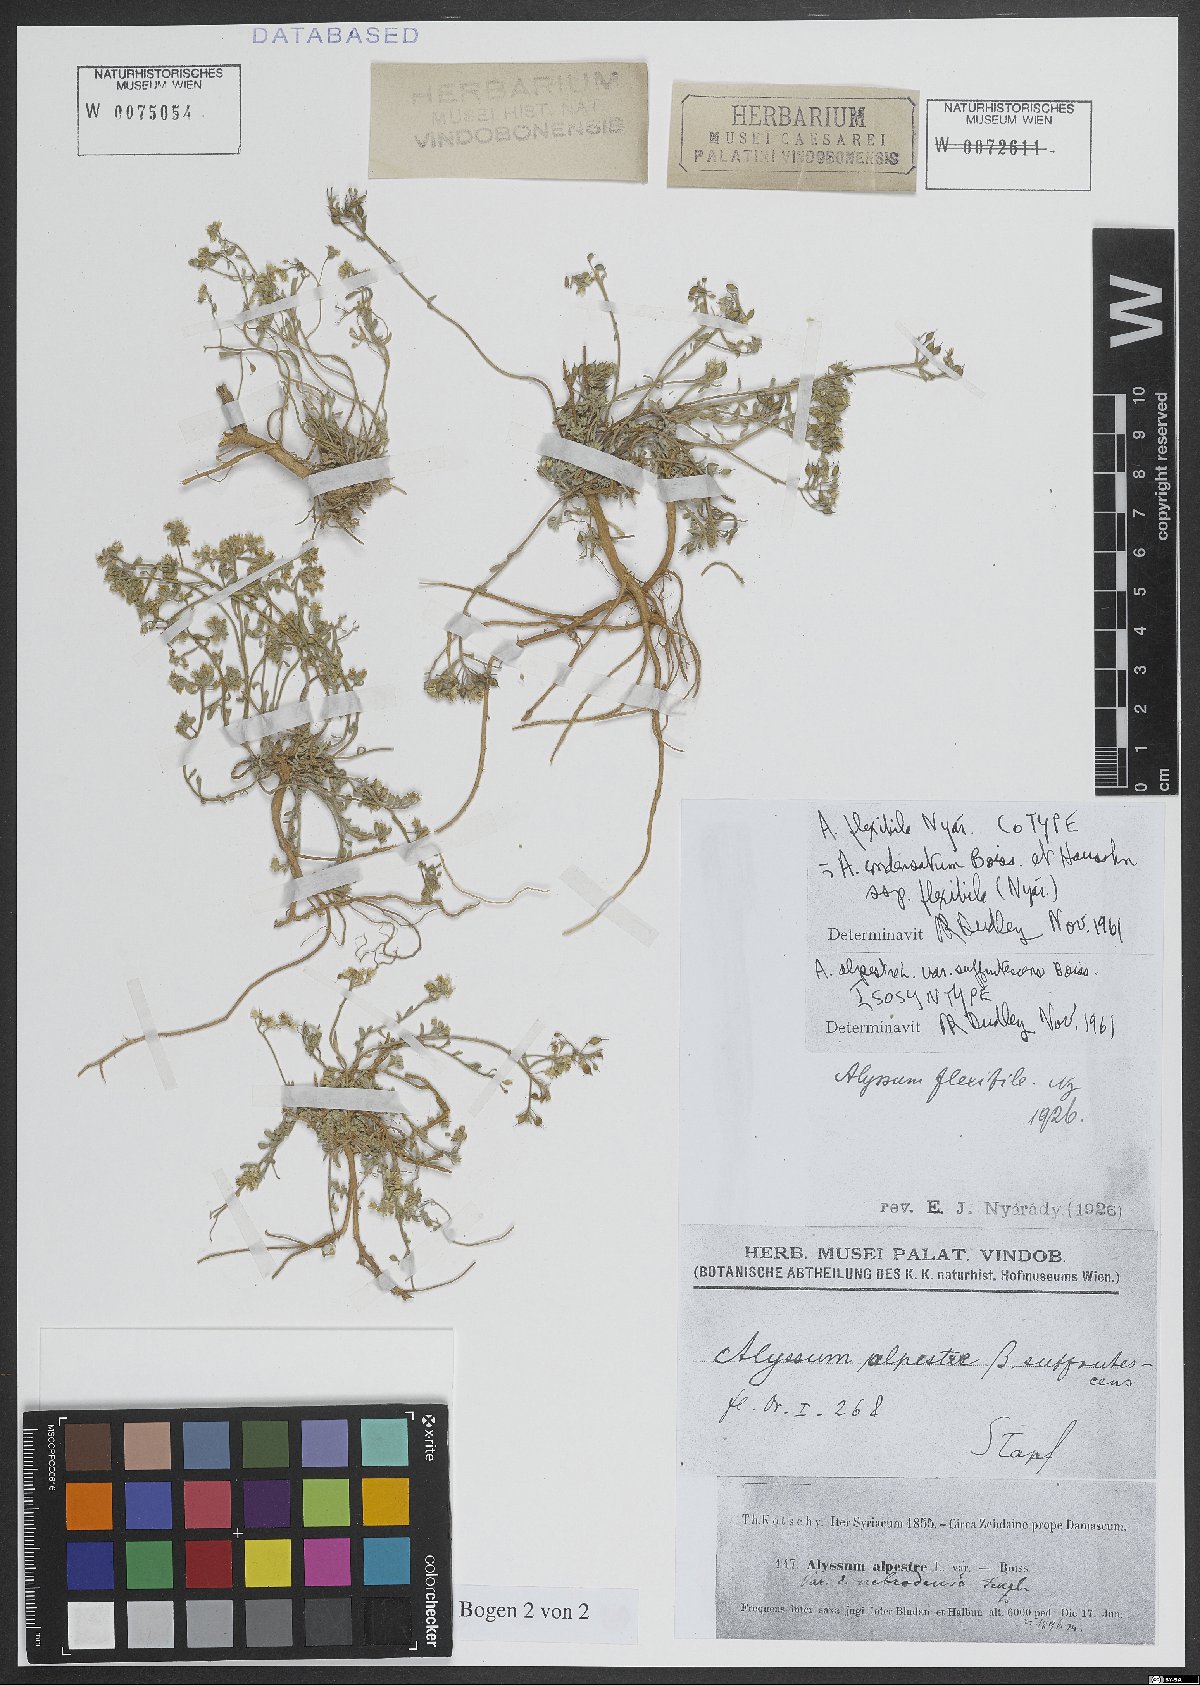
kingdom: Plantae
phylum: Tracheophyta
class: Magnoliopsida
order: Brassicales
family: Brassicaceae
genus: Odontarrhena
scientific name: Odontarrhena condensata
